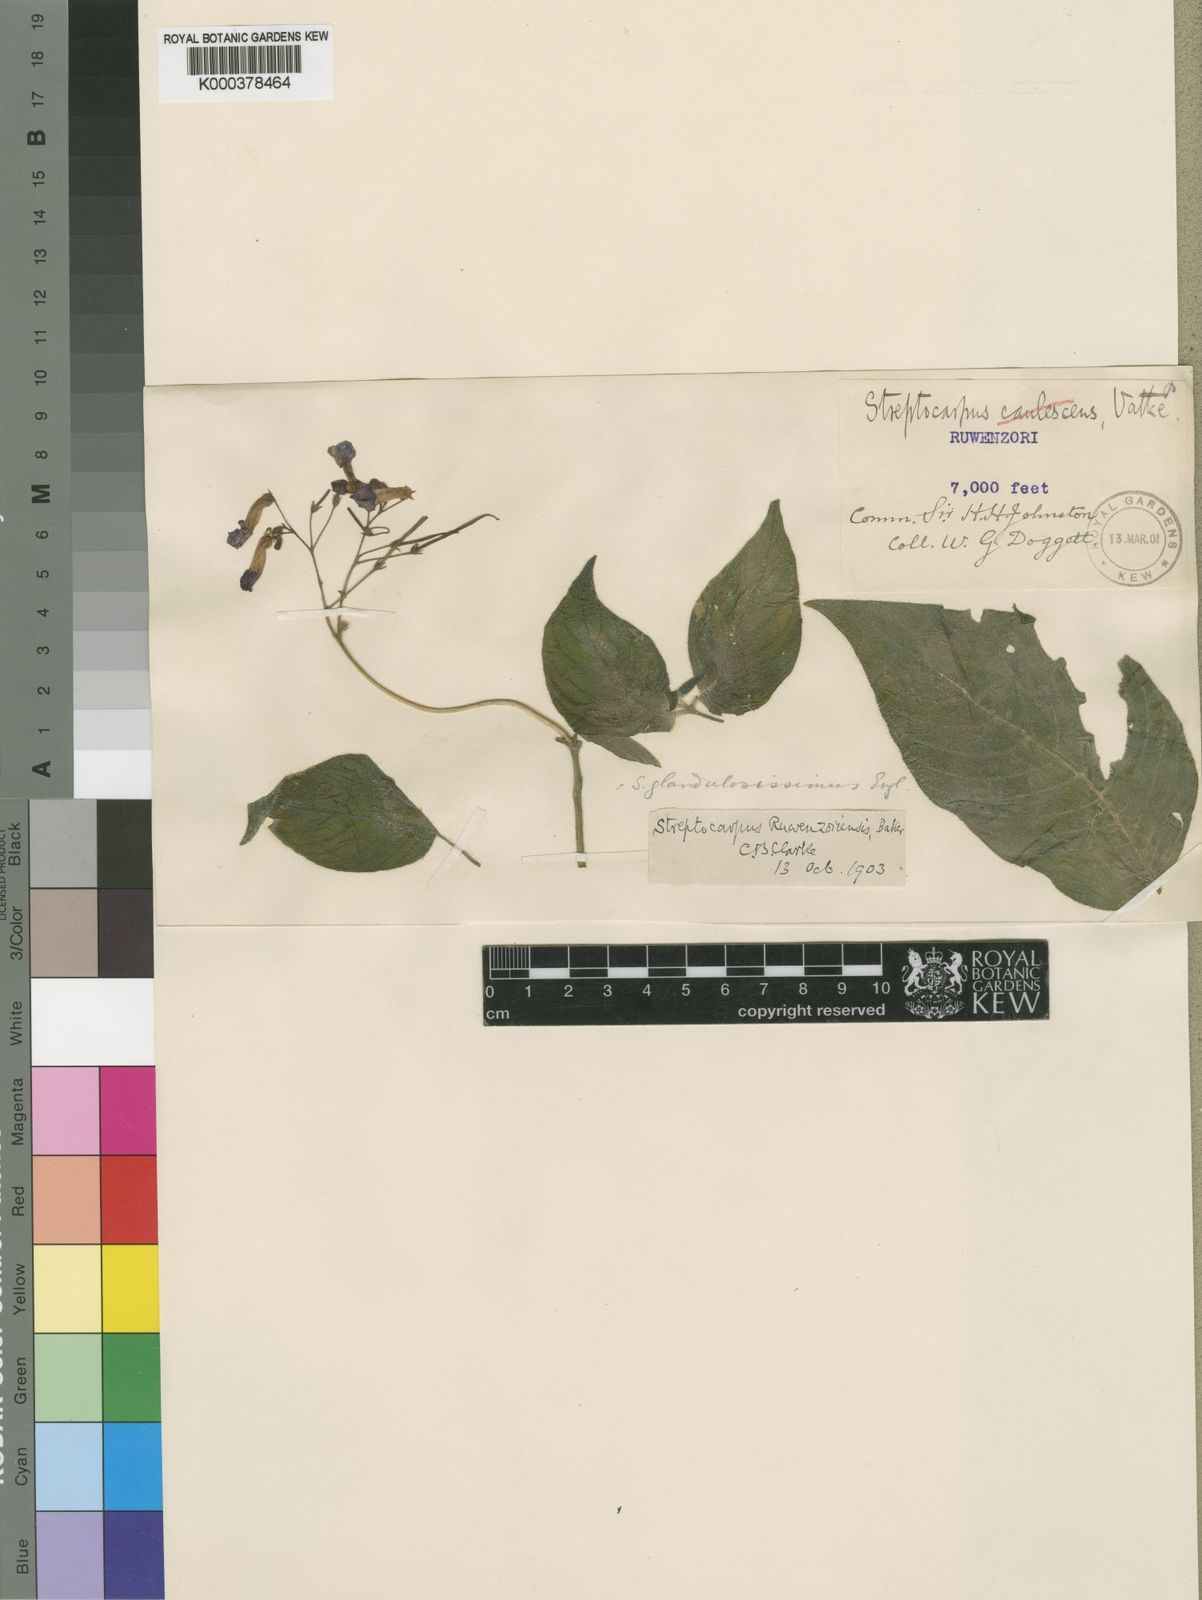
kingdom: Plantae
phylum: Tracheophyta
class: Magnoliopsida
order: Lamiales
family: Gesneriaceae
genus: Streptocarpus
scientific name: Streptocarpus glandulosissimus
